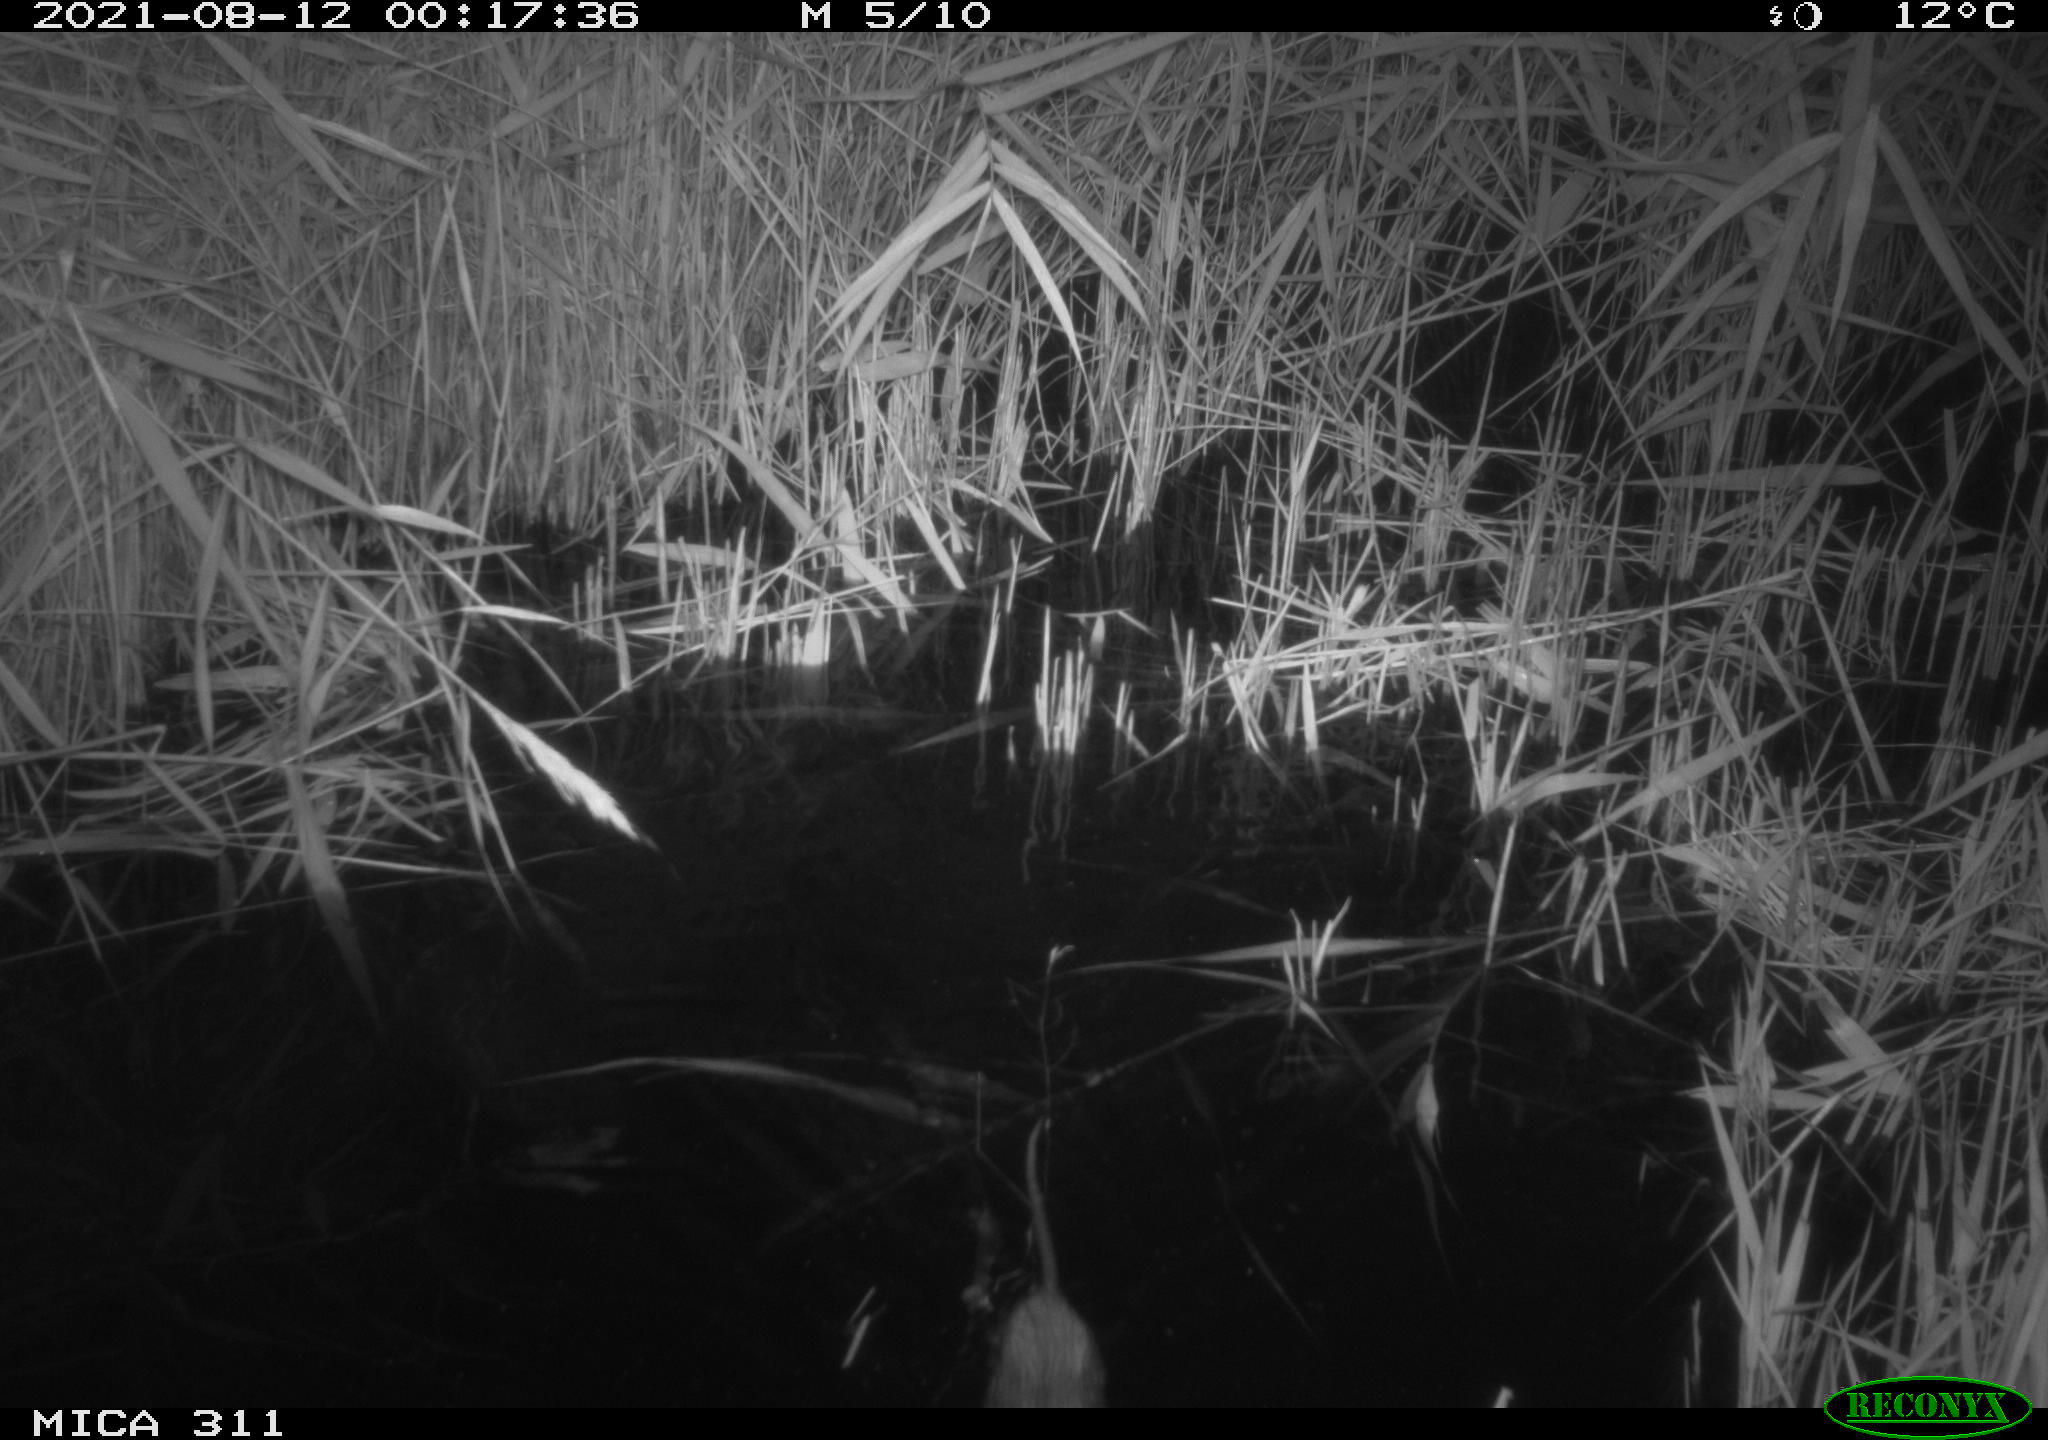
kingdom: Animalia
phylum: Chordata
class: Mammalia
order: Rodentia
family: Muridae
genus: Rattus
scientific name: Rattus norvegicus
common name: Brown rat
